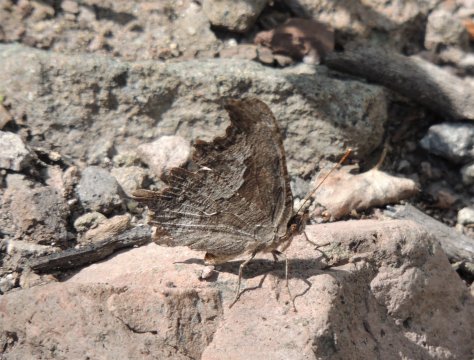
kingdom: Animalia
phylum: Arthropoda
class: Insecta
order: Lepidoptera
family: Nymphalidae
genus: Polygonia
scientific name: Polygonia gracilis
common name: Hoary Comma
